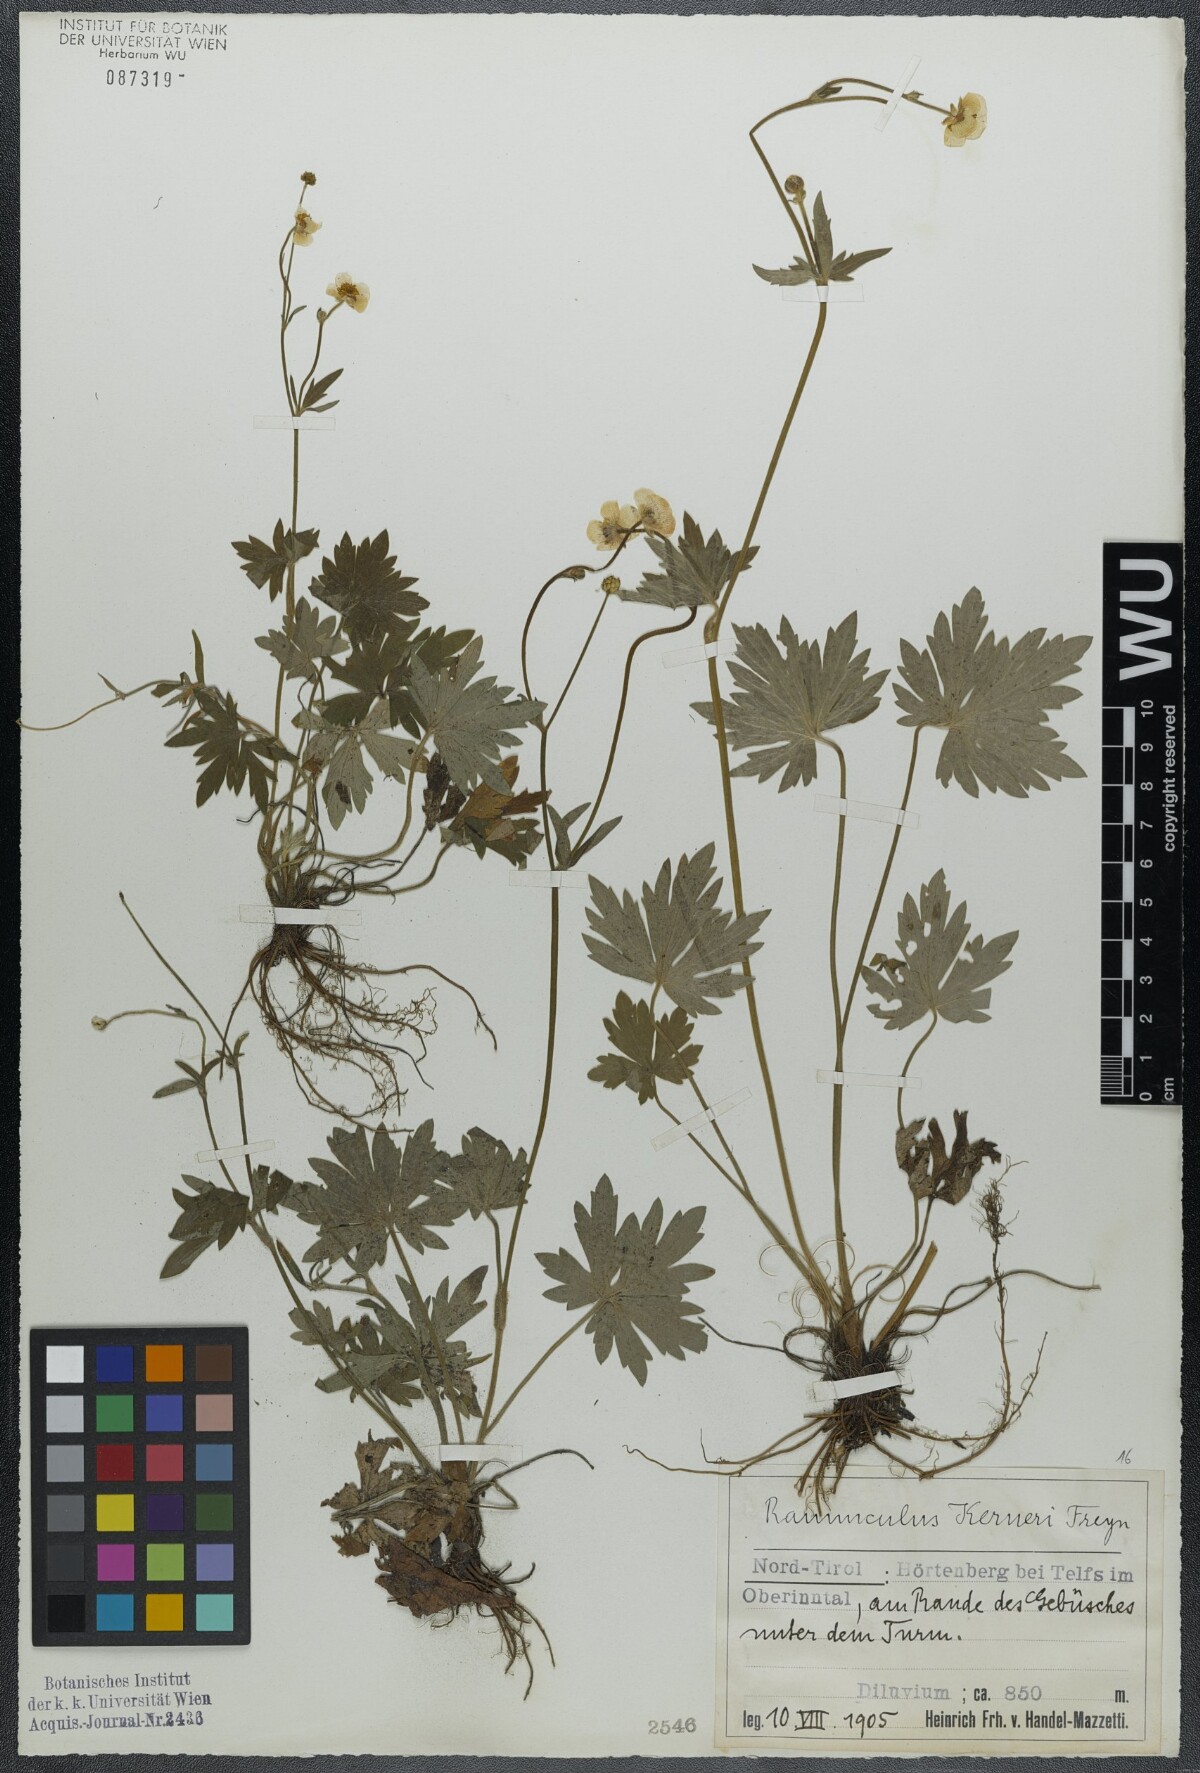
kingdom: Plantae
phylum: Tracheophyta
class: Magnoliopsida
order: Ranunculales
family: Ranunculaceae
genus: Ranunculus
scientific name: Ranunculus acris
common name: Meadow buttercup
